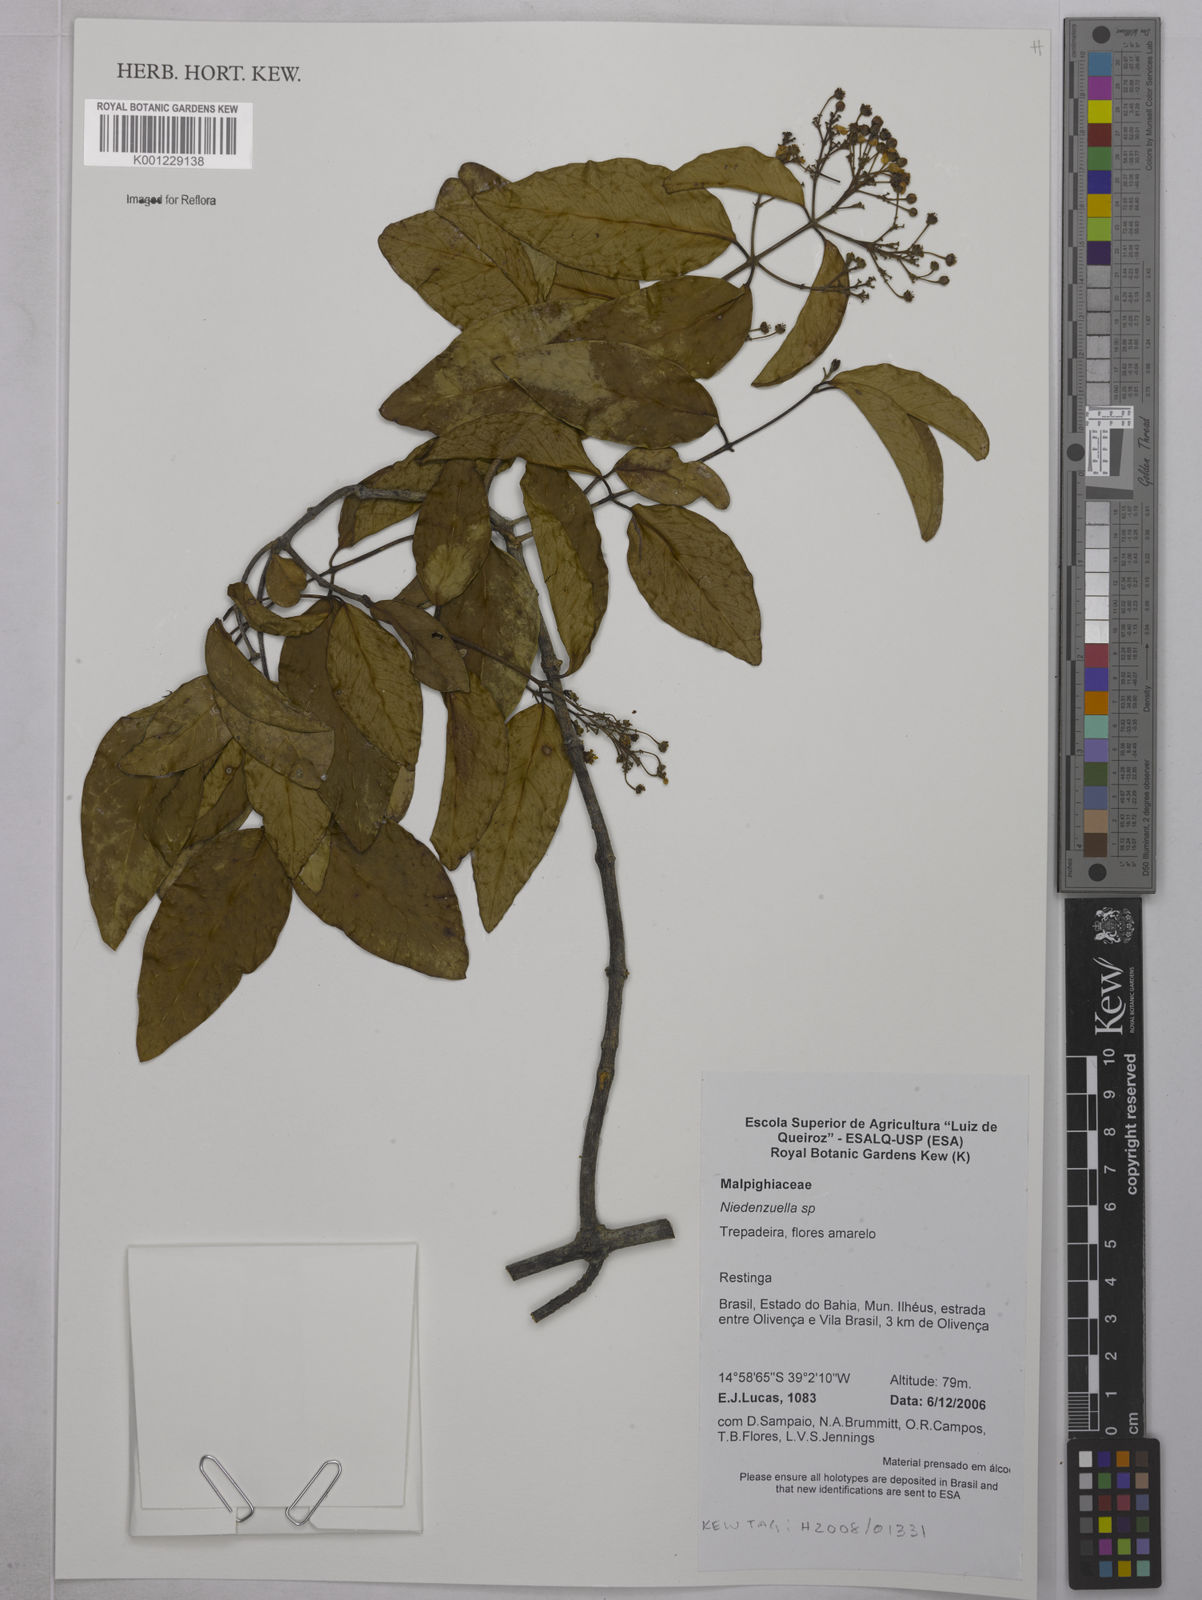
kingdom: Plantae
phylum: Tracheophyta
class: Magnoliopsida
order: Malpighiales
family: Malpighiaceae
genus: Niedenzuella
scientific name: Niedenzuella
